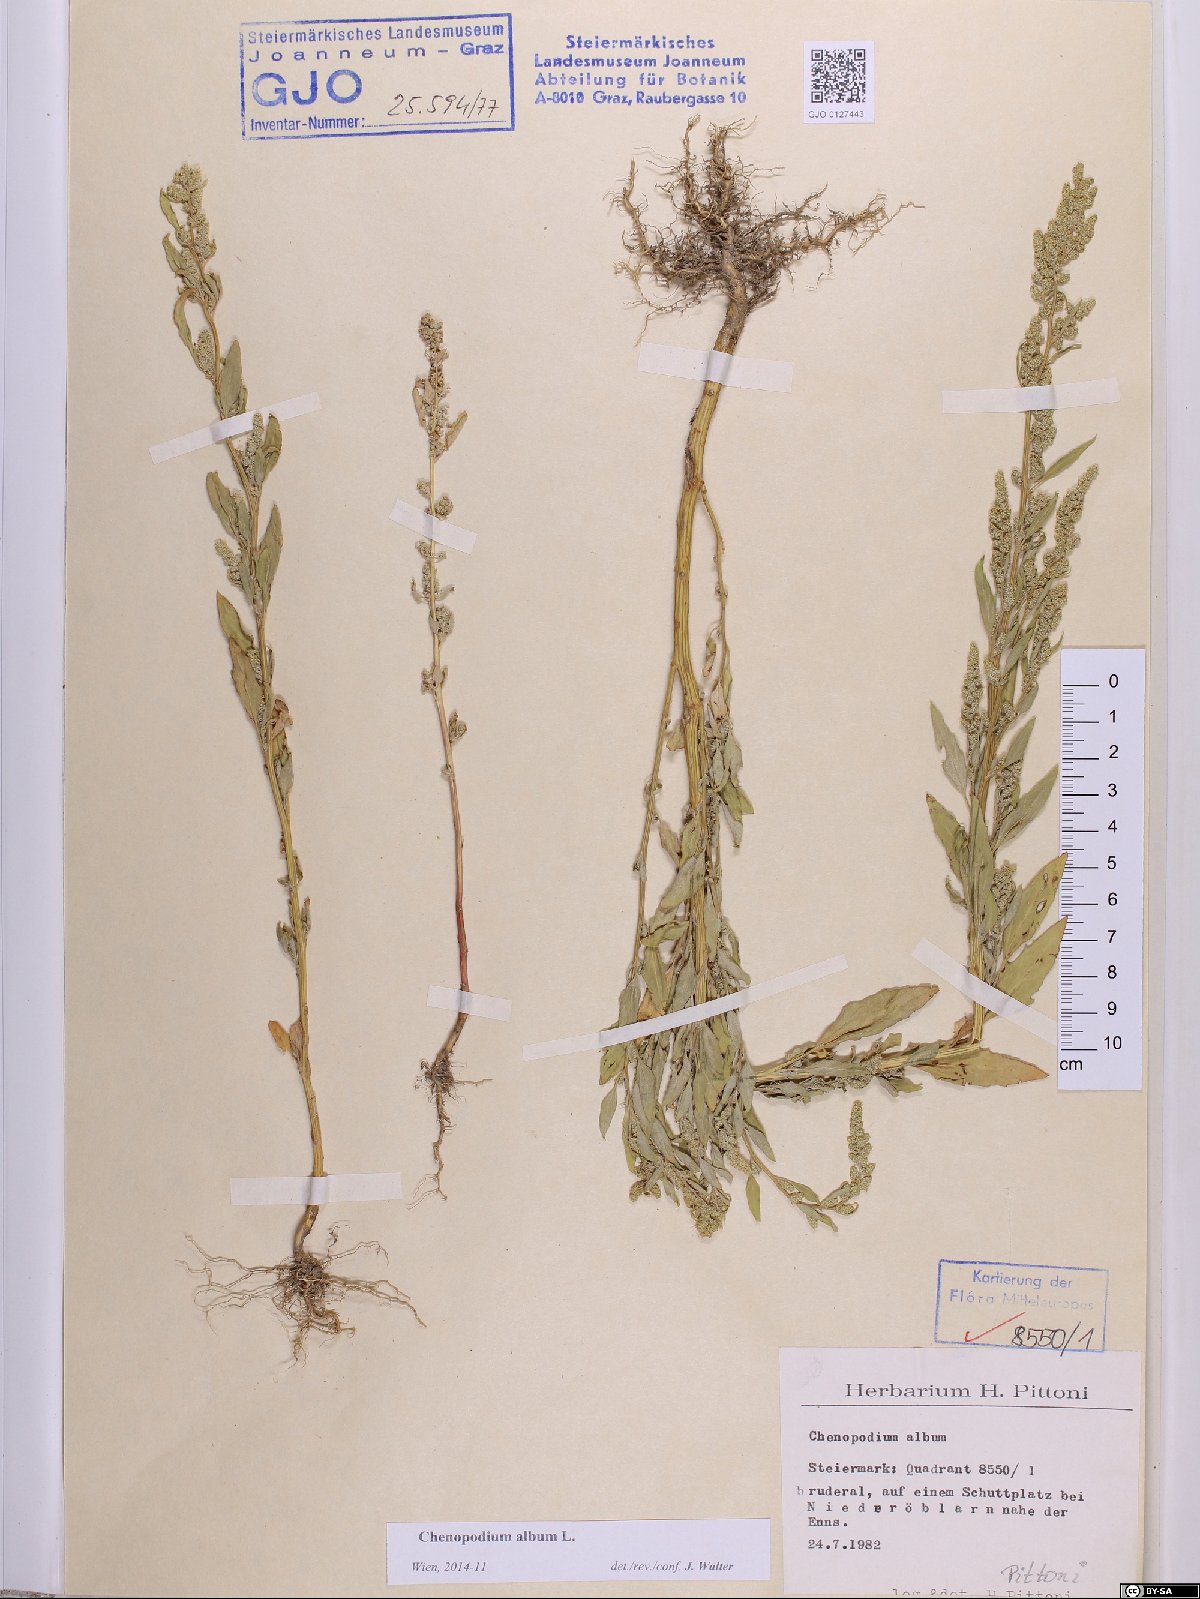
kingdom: Plantae
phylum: Tracheophyta
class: Magnoliopsida
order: Caryophyllales
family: Amaranthaceae
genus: Chenopodium
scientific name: Chenopodium album
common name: Fat-hen
